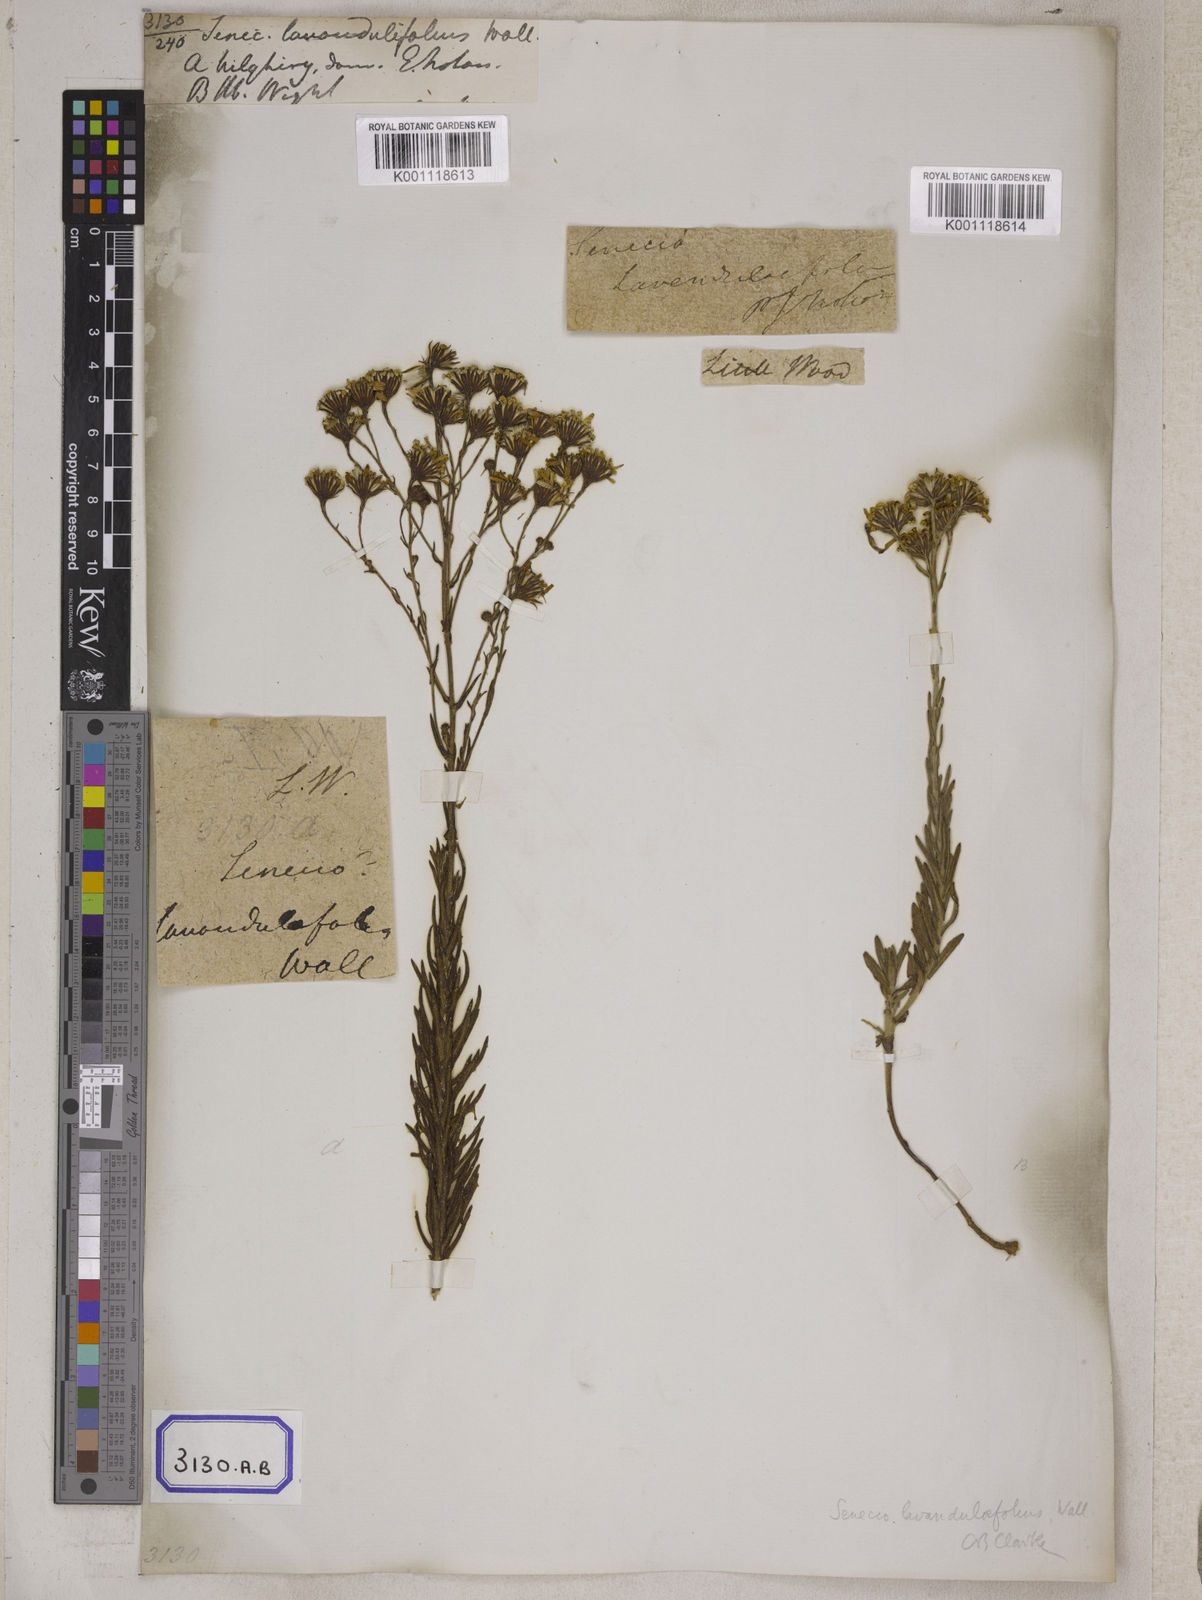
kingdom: Plantae
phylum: Tracheophyta
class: Magnoliopsida
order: Asterales
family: Asteraceae
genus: Senecio
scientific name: Senecio lavandulifolius
